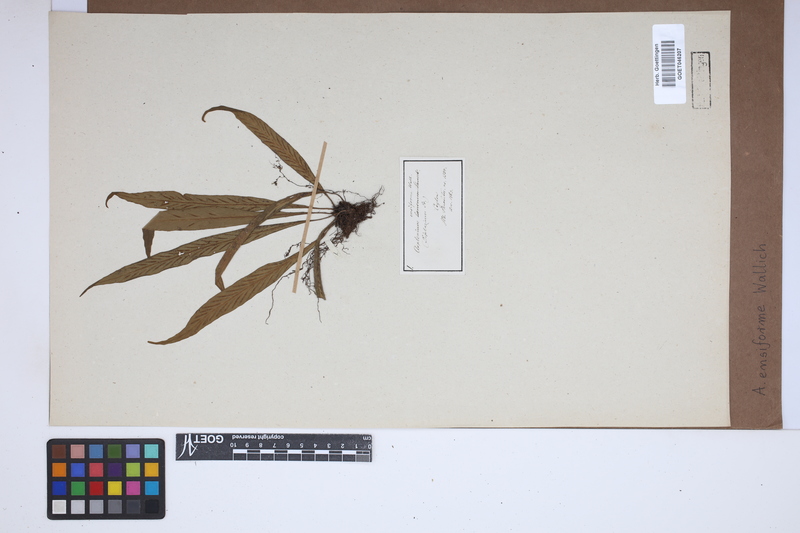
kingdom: Plantae
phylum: Tracheophyta
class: Polypodiopsida
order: Polypodiales
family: Aspleniaceae
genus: Asplenium
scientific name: Asplenium ensiforme
